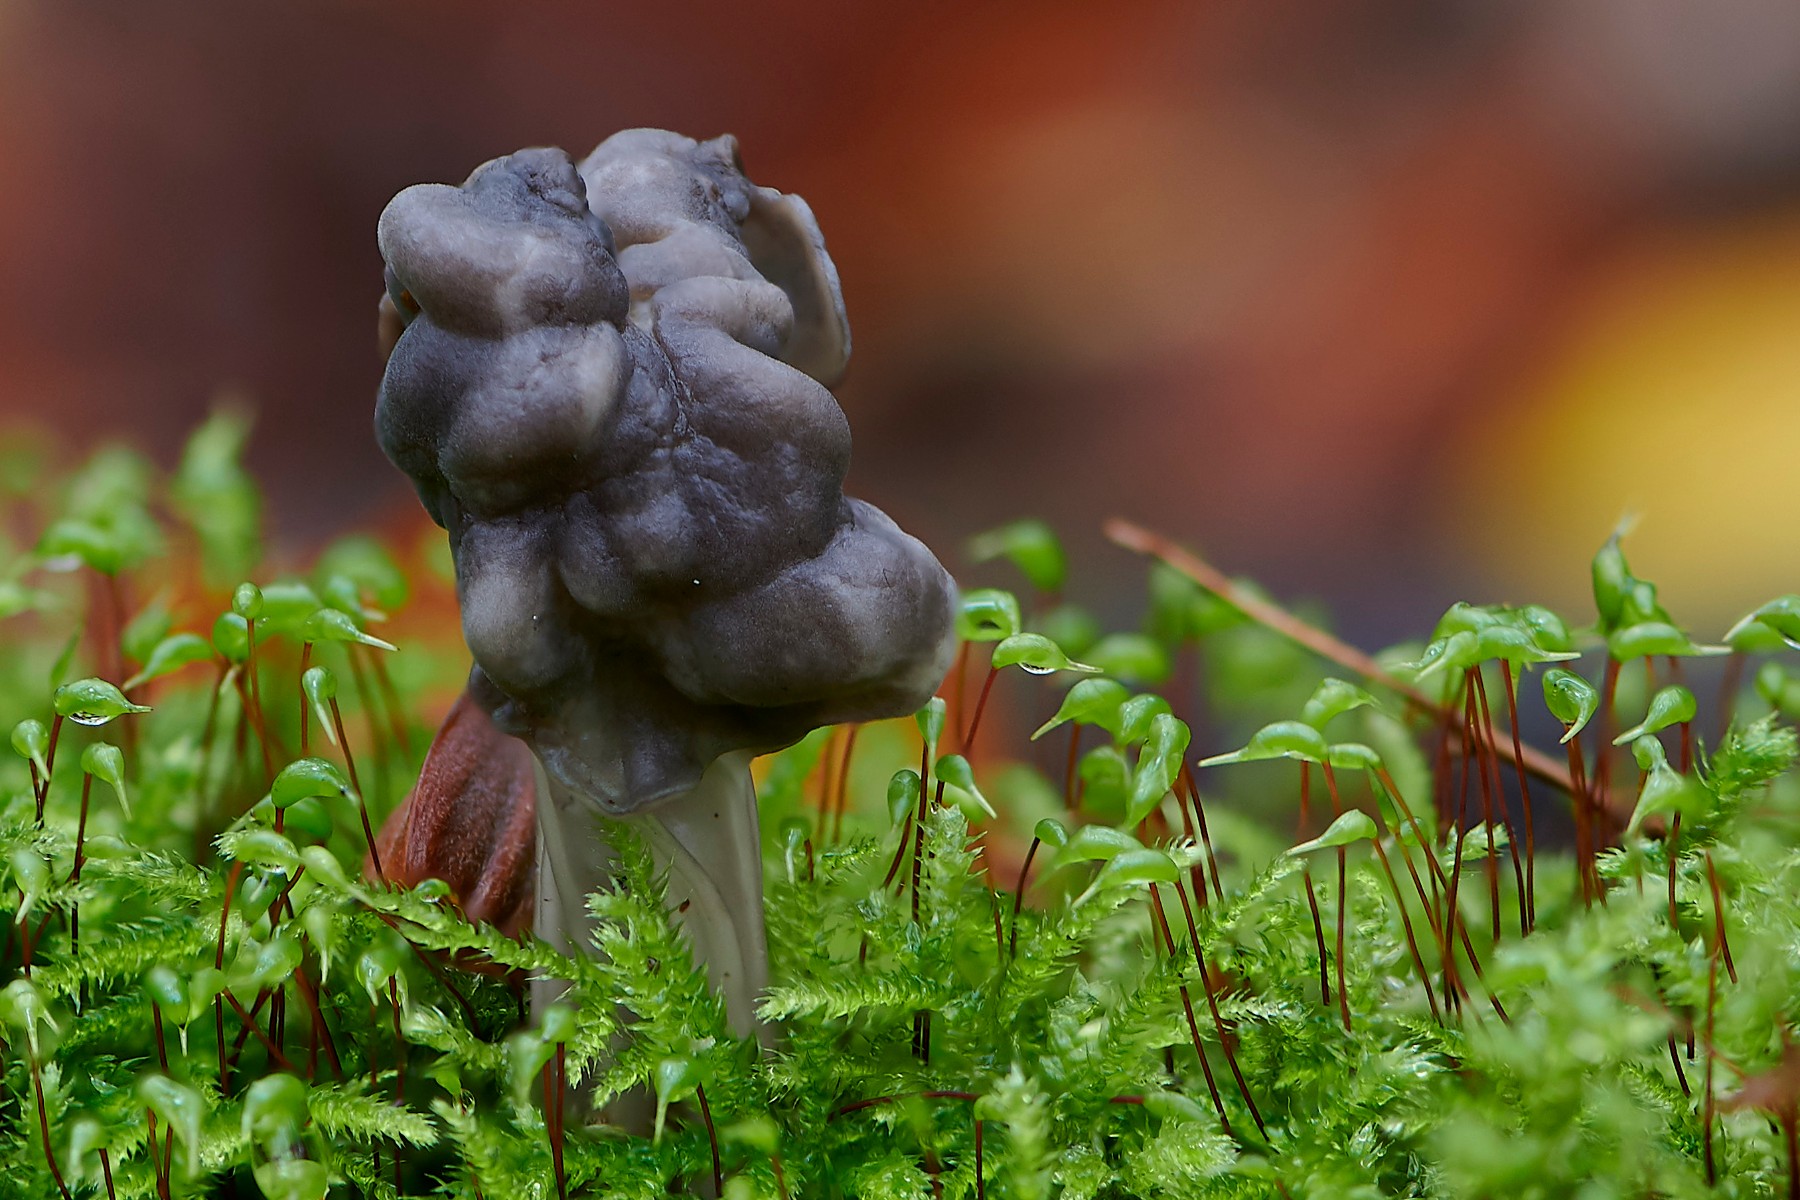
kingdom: Fungi
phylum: Ascomycota
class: Pezizomycetes
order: Pezizales
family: Helvellaceae
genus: Helvella
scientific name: Helvella lacunosa
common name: grubet foldhat
